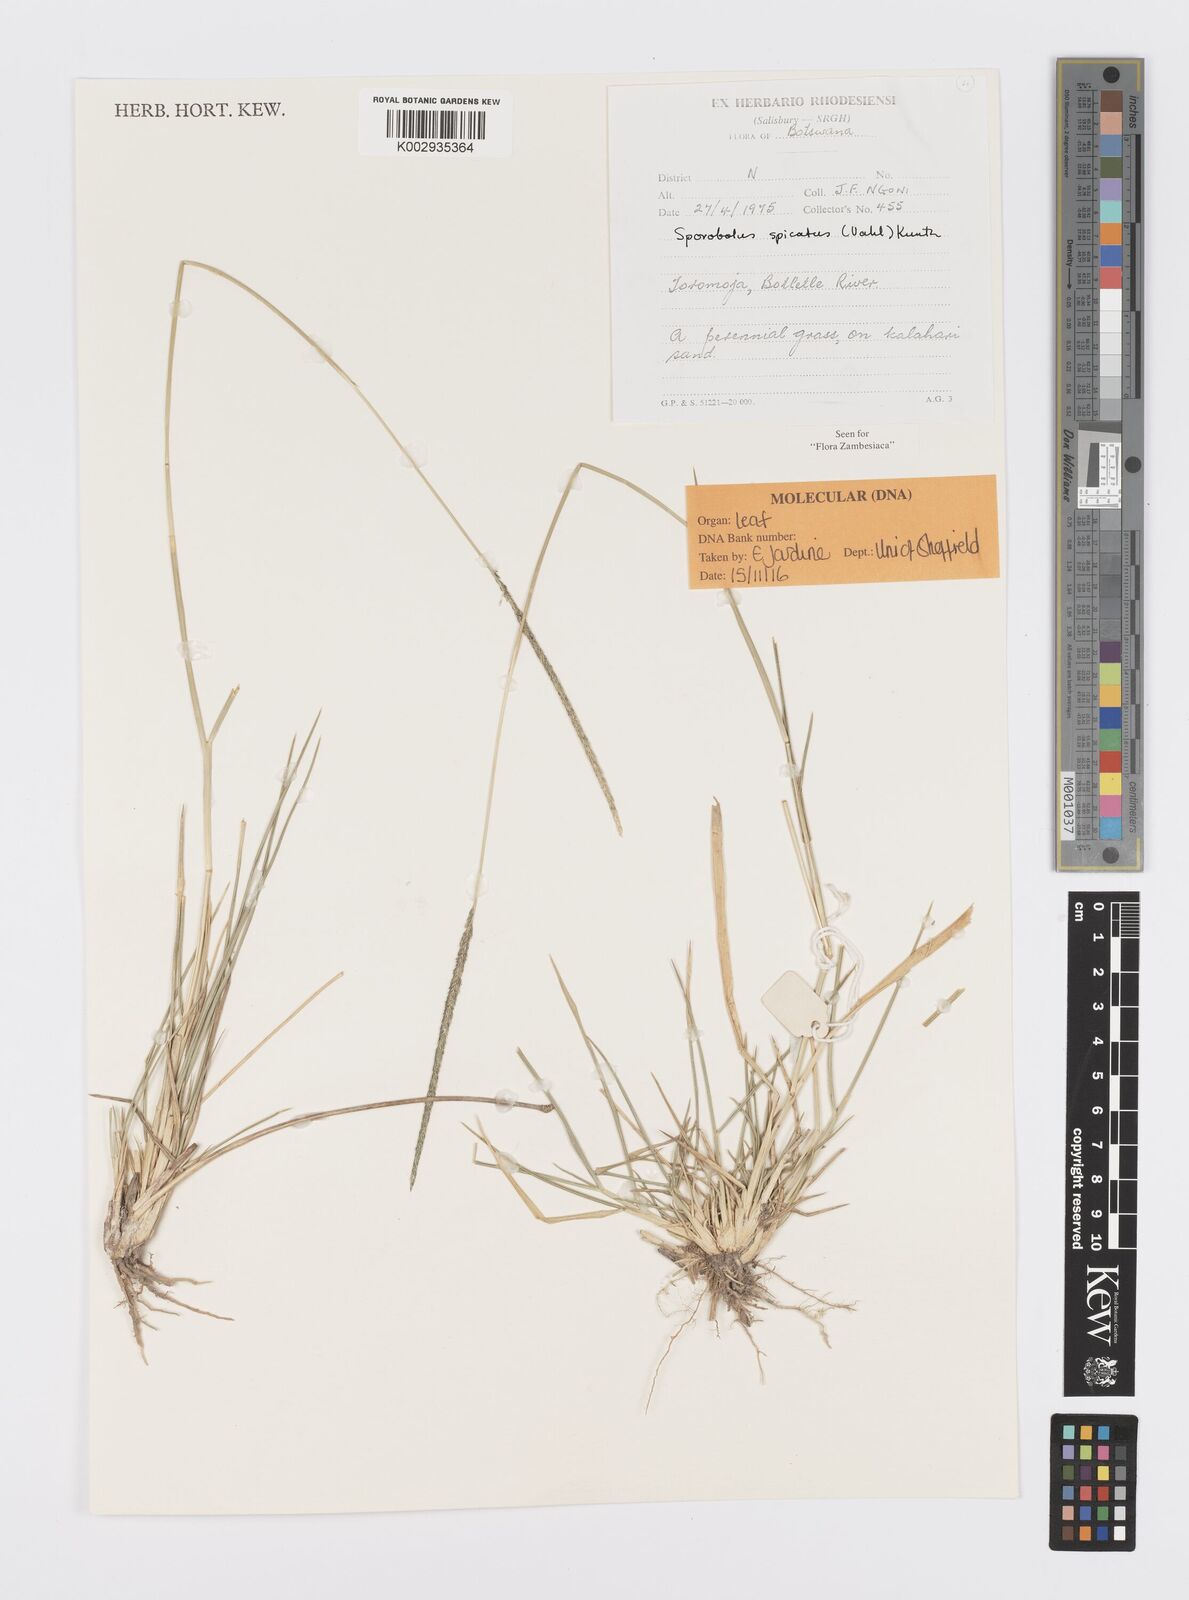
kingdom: Plantae
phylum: Tracheophyta
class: Liliopsida
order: Poales
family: Poaceae
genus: Sporobolus
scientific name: Sporobolus spicatus
